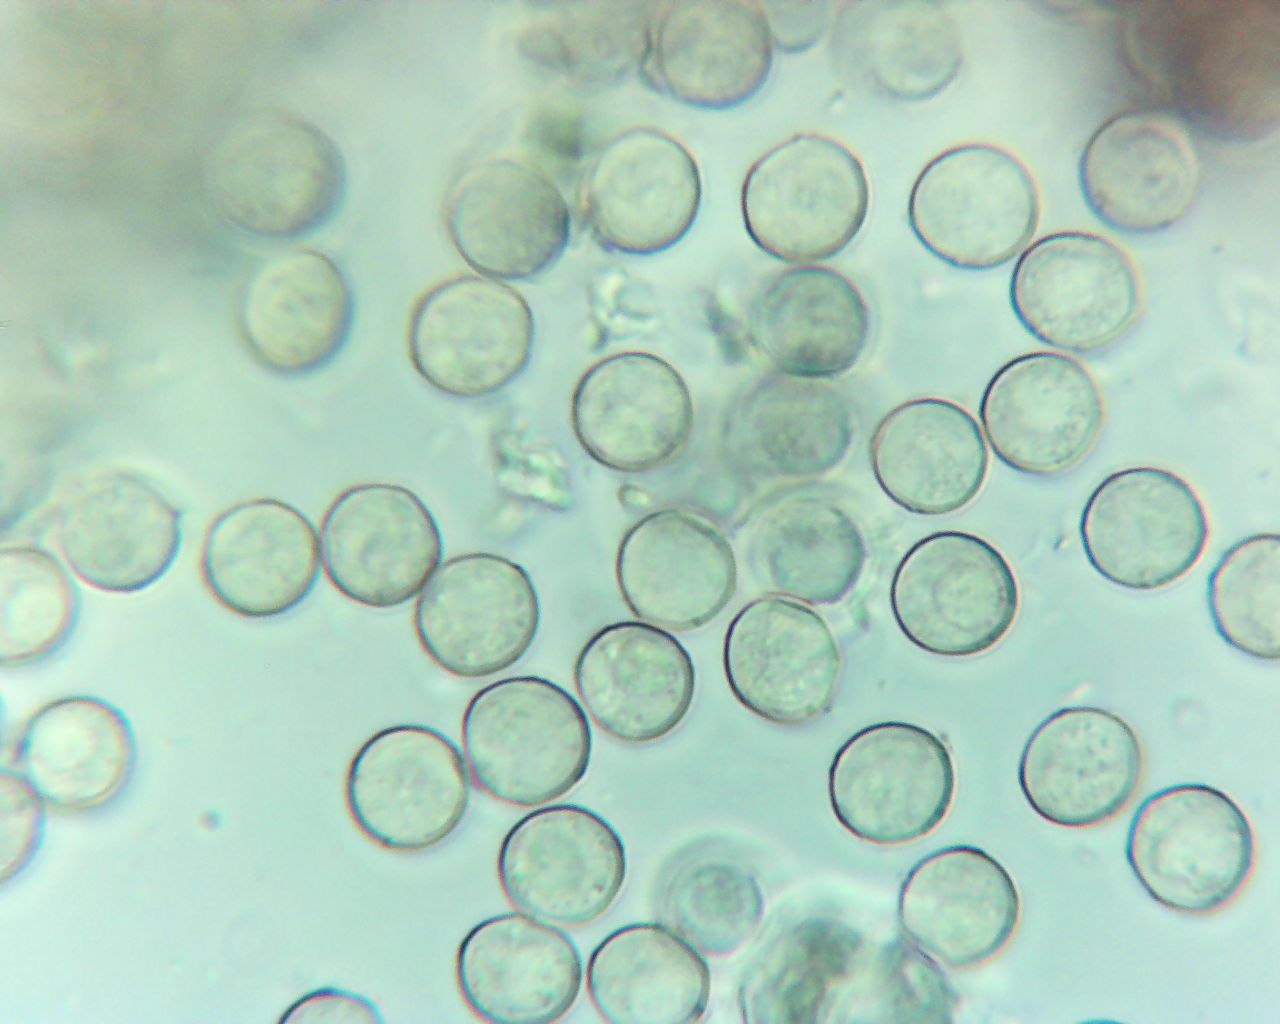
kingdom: Protozoa
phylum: Mycetozoa
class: Myxomycetes
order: Trichiales
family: Arcyriaceae
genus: Arcyria
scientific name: Arcyria pomiformis
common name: Golden apple slime mold
